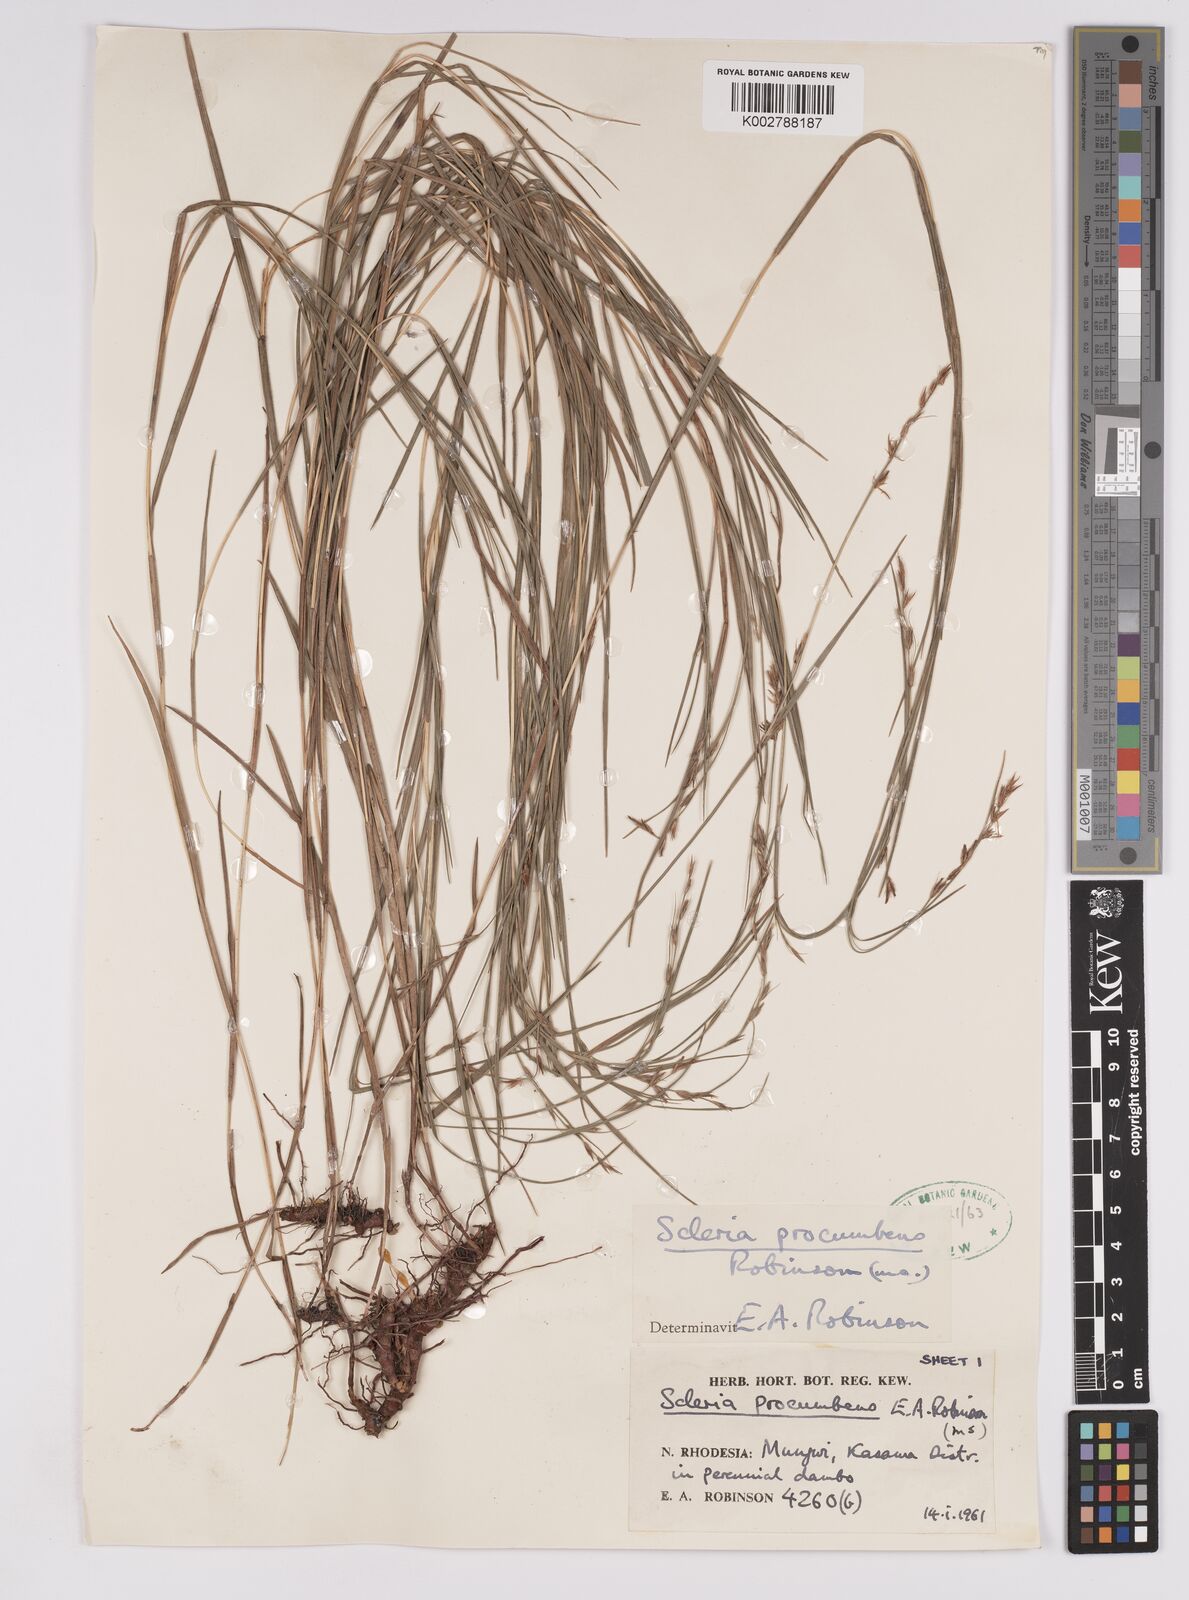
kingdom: Plantae
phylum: Tracheophyta
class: Liliopsida
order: Poales
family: Cyperaceae
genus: Scleria
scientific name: Scleria procumbens
